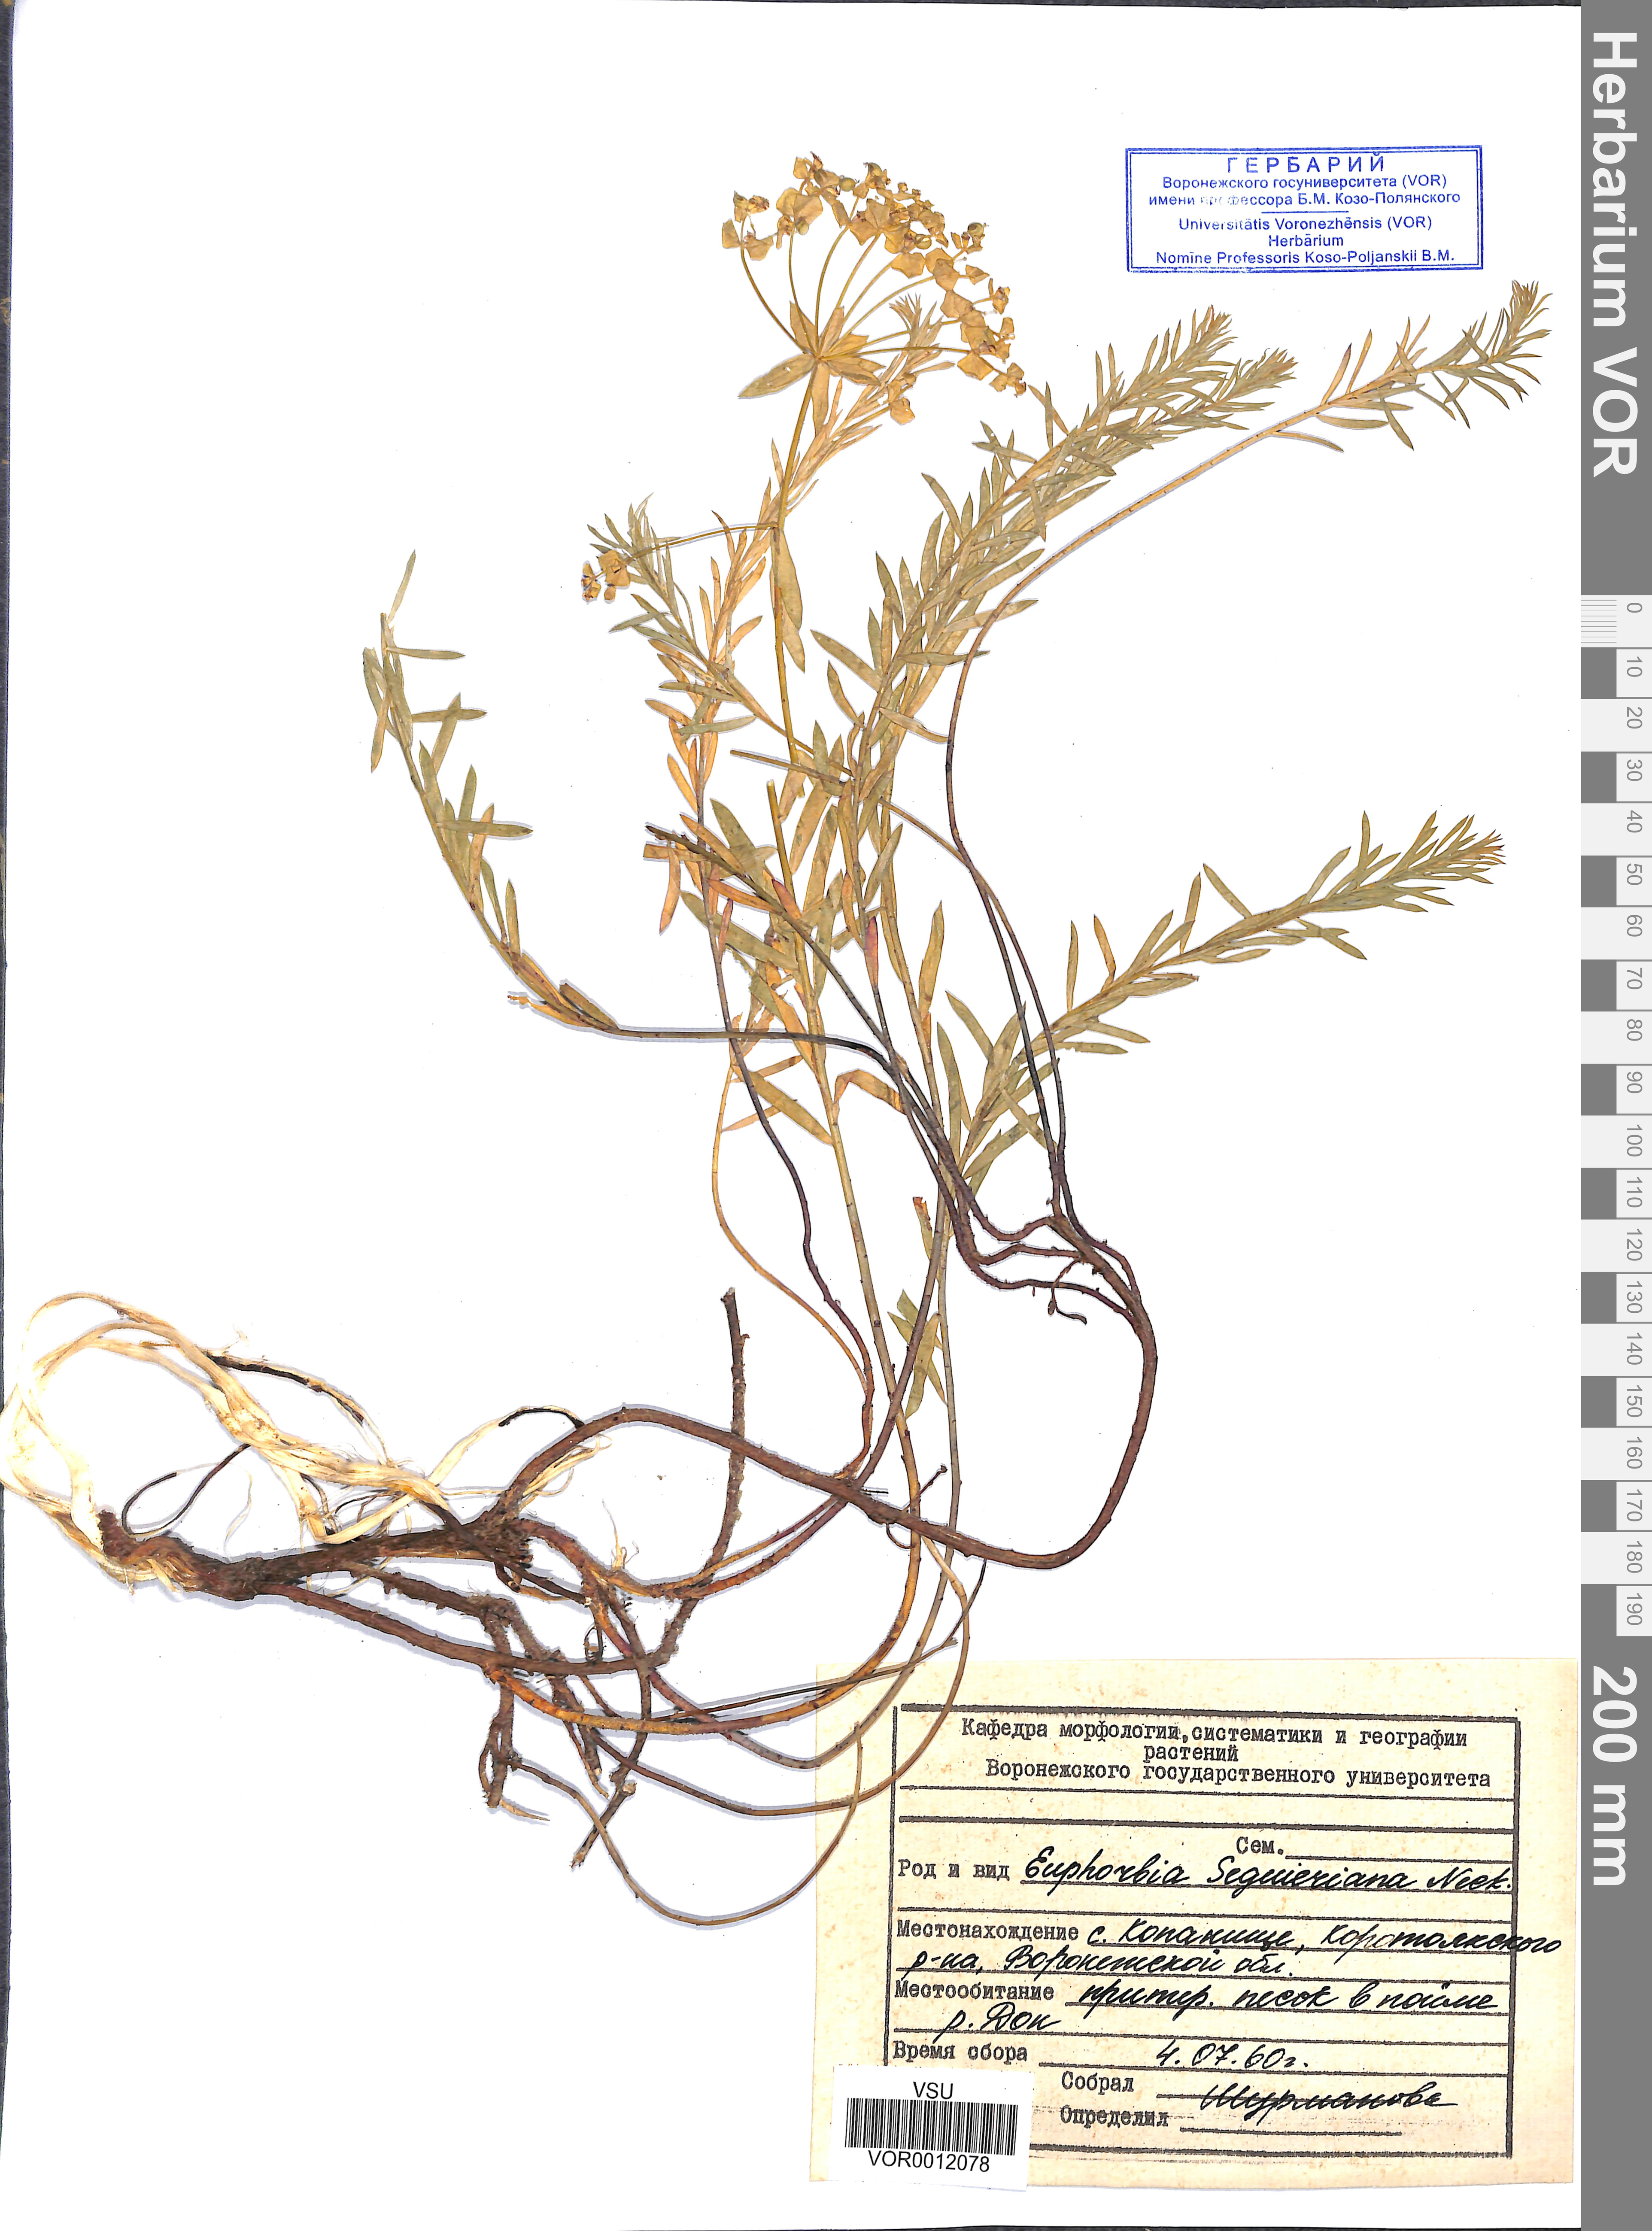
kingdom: Plantae
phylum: Tracheophyta
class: Magnoliopsida
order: Malpighiales
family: Euphorbiaceae
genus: Euphorbia
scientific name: Euphorbia seguieriana
